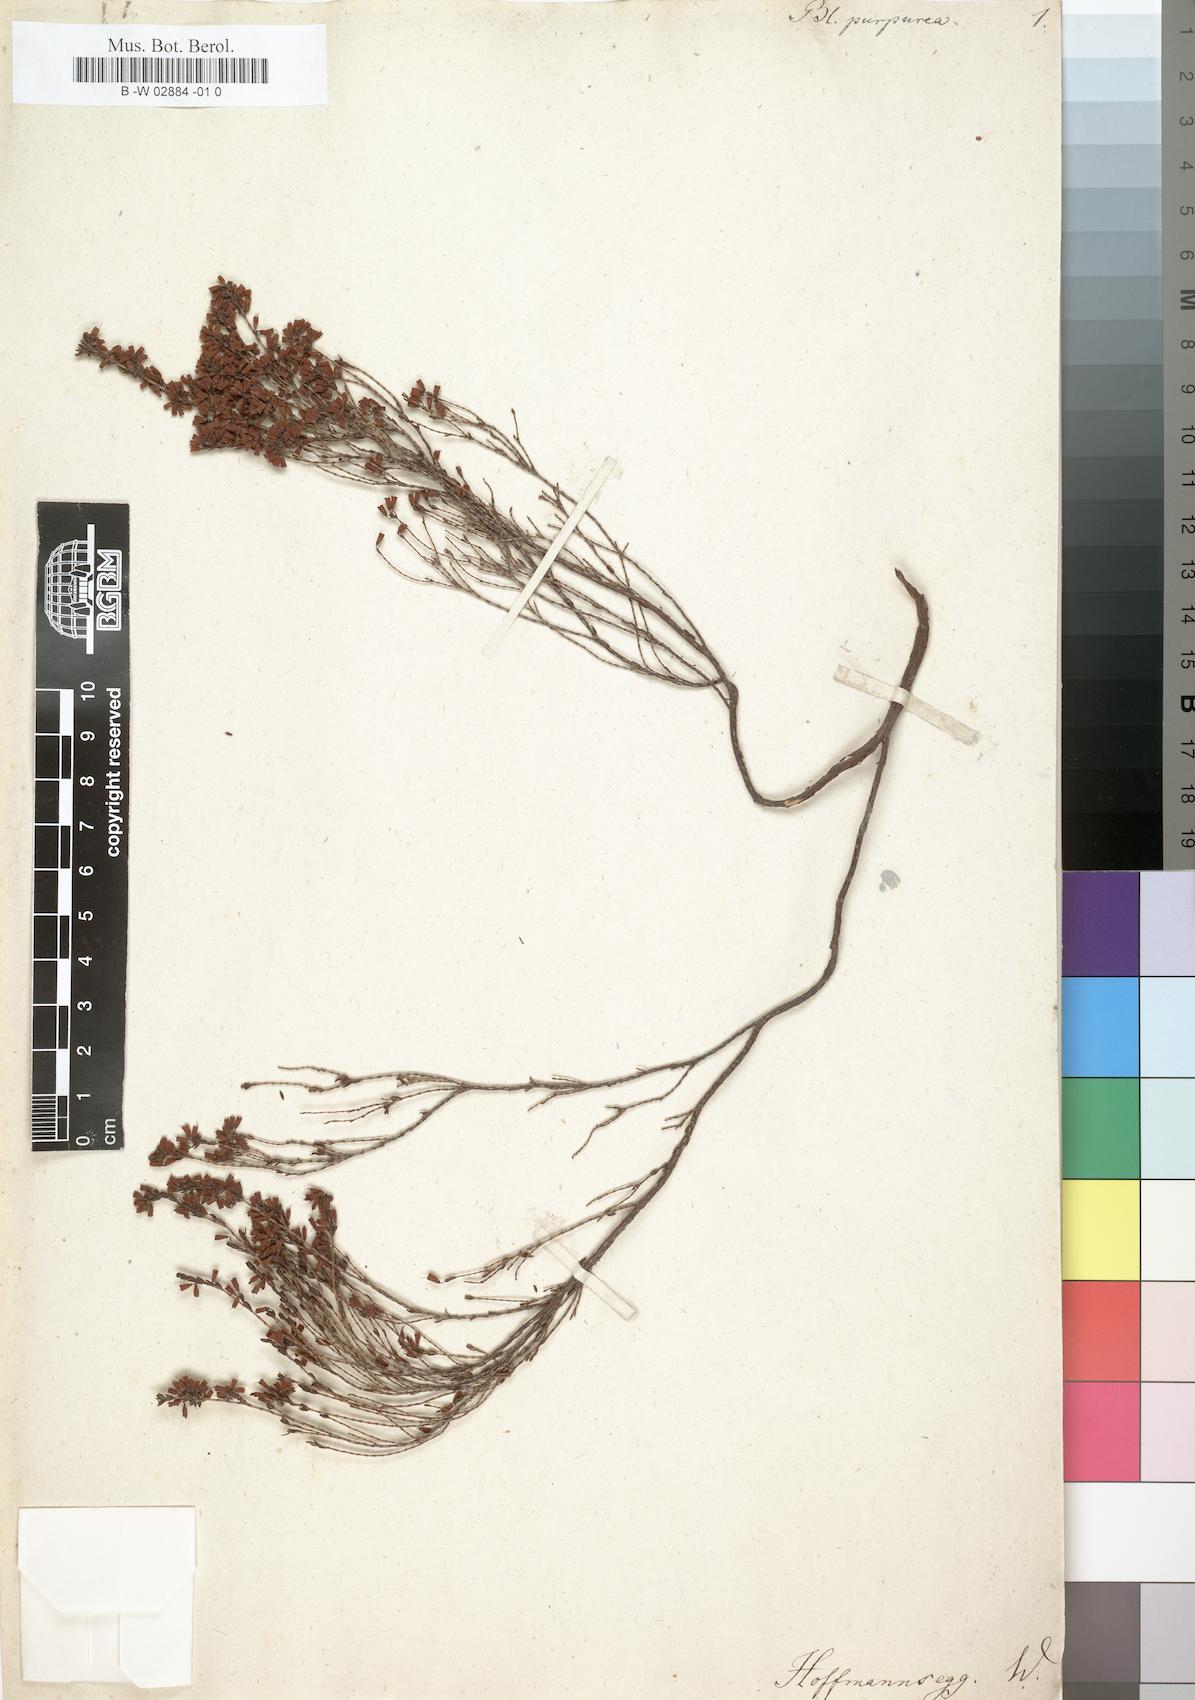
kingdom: Plantae
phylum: Tracheophyta
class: Magnoliopsida
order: Ericales
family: Ericaceae
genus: Erica
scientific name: Erica
